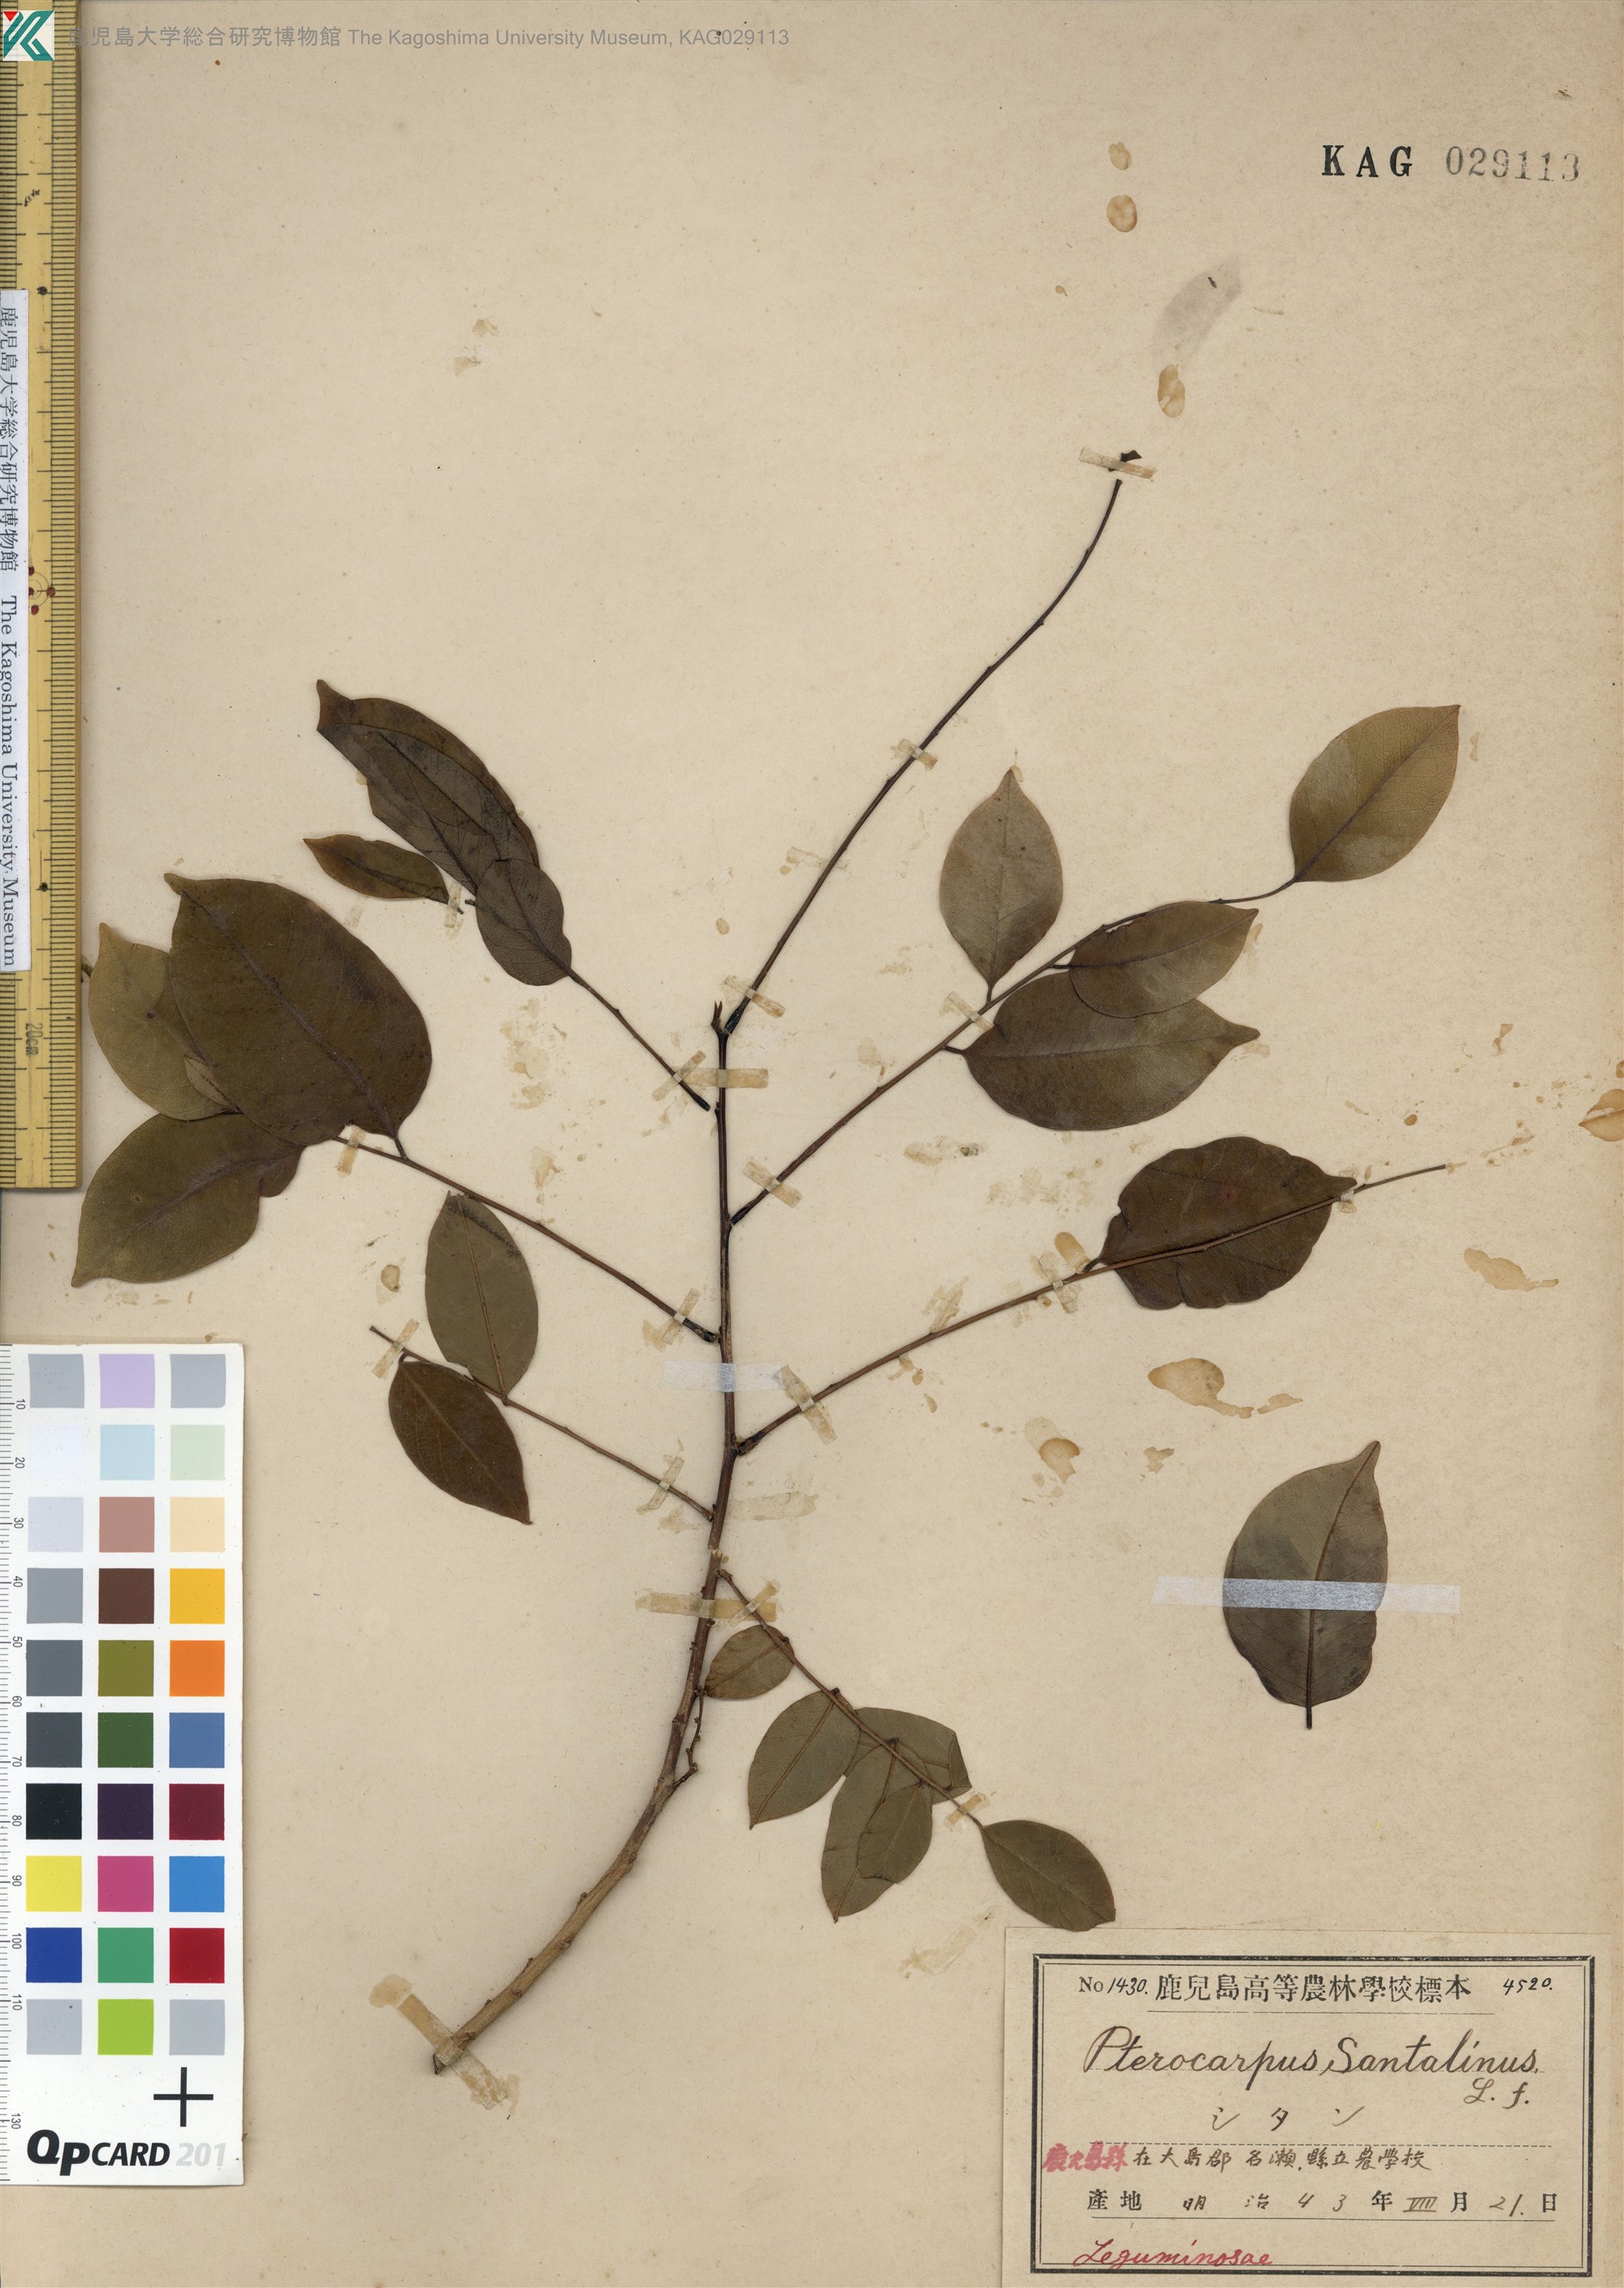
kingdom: Plantae
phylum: Tracheophyta
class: Magnoliopsida
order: Fabales
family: Fabaceae
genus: Pterocarpus
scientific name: Pterocarpus indicus
